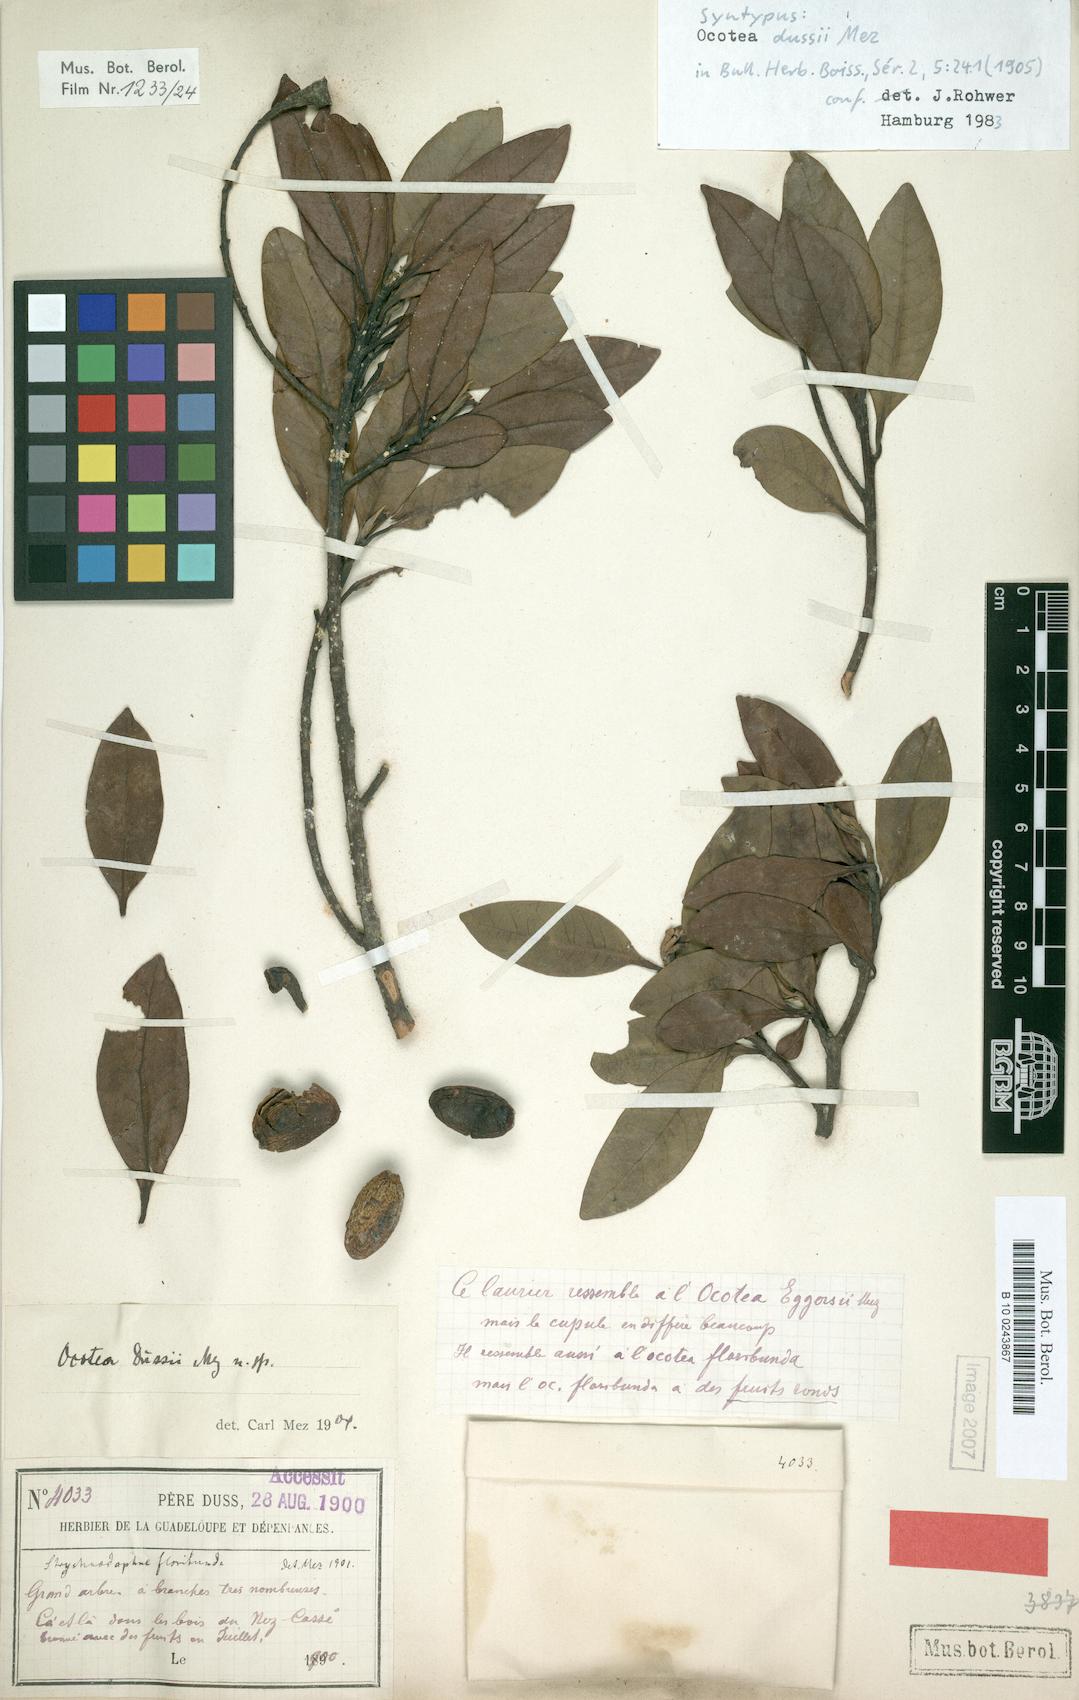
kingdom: Plantae
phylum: Tracheophyta
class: Magnoliopsida
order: Laurales
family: Lauraceae
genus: Ocotea
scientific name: Ocotea dussii
